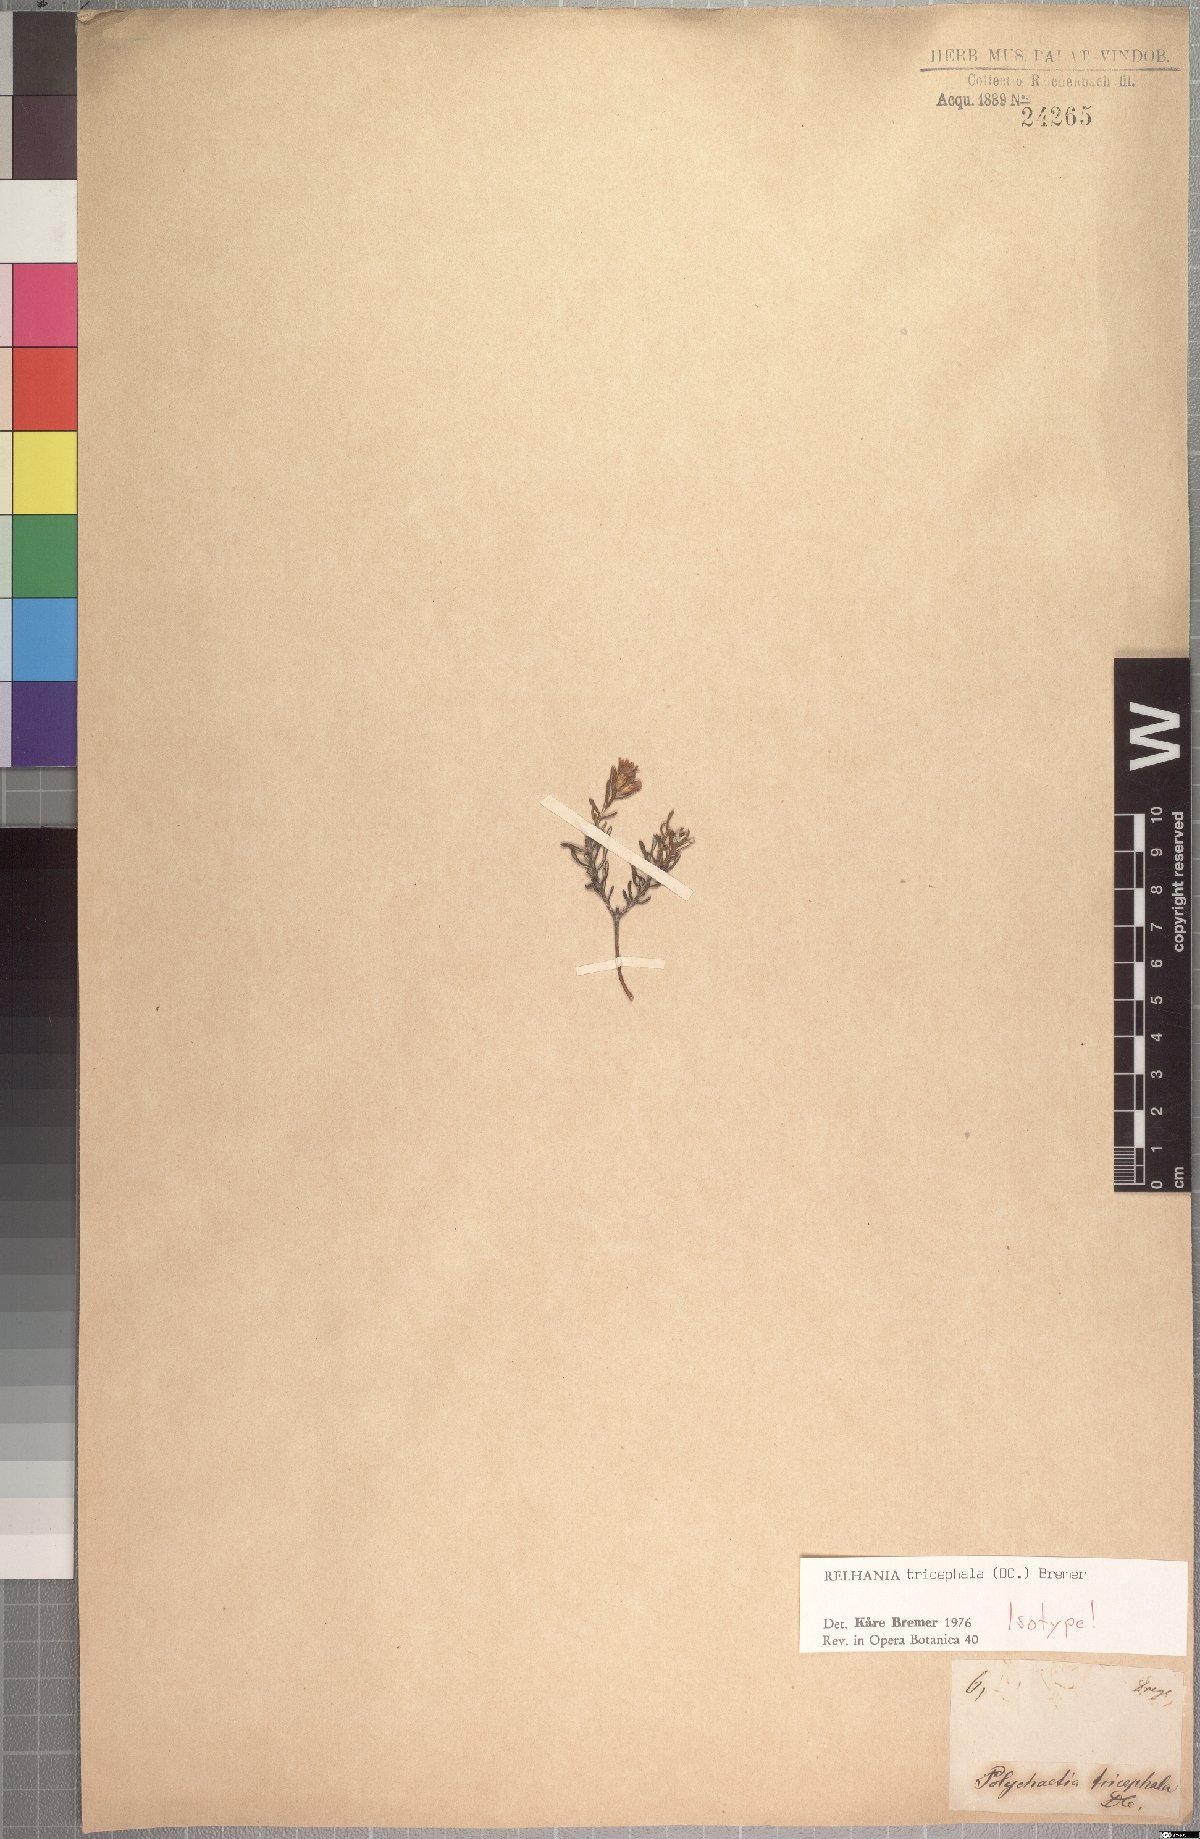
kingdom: Plantae
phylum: Tracheophyta
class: Magnoliopsida
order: Asterales
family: Asteraceae
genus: Oedera
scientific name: Oedera tricephala
